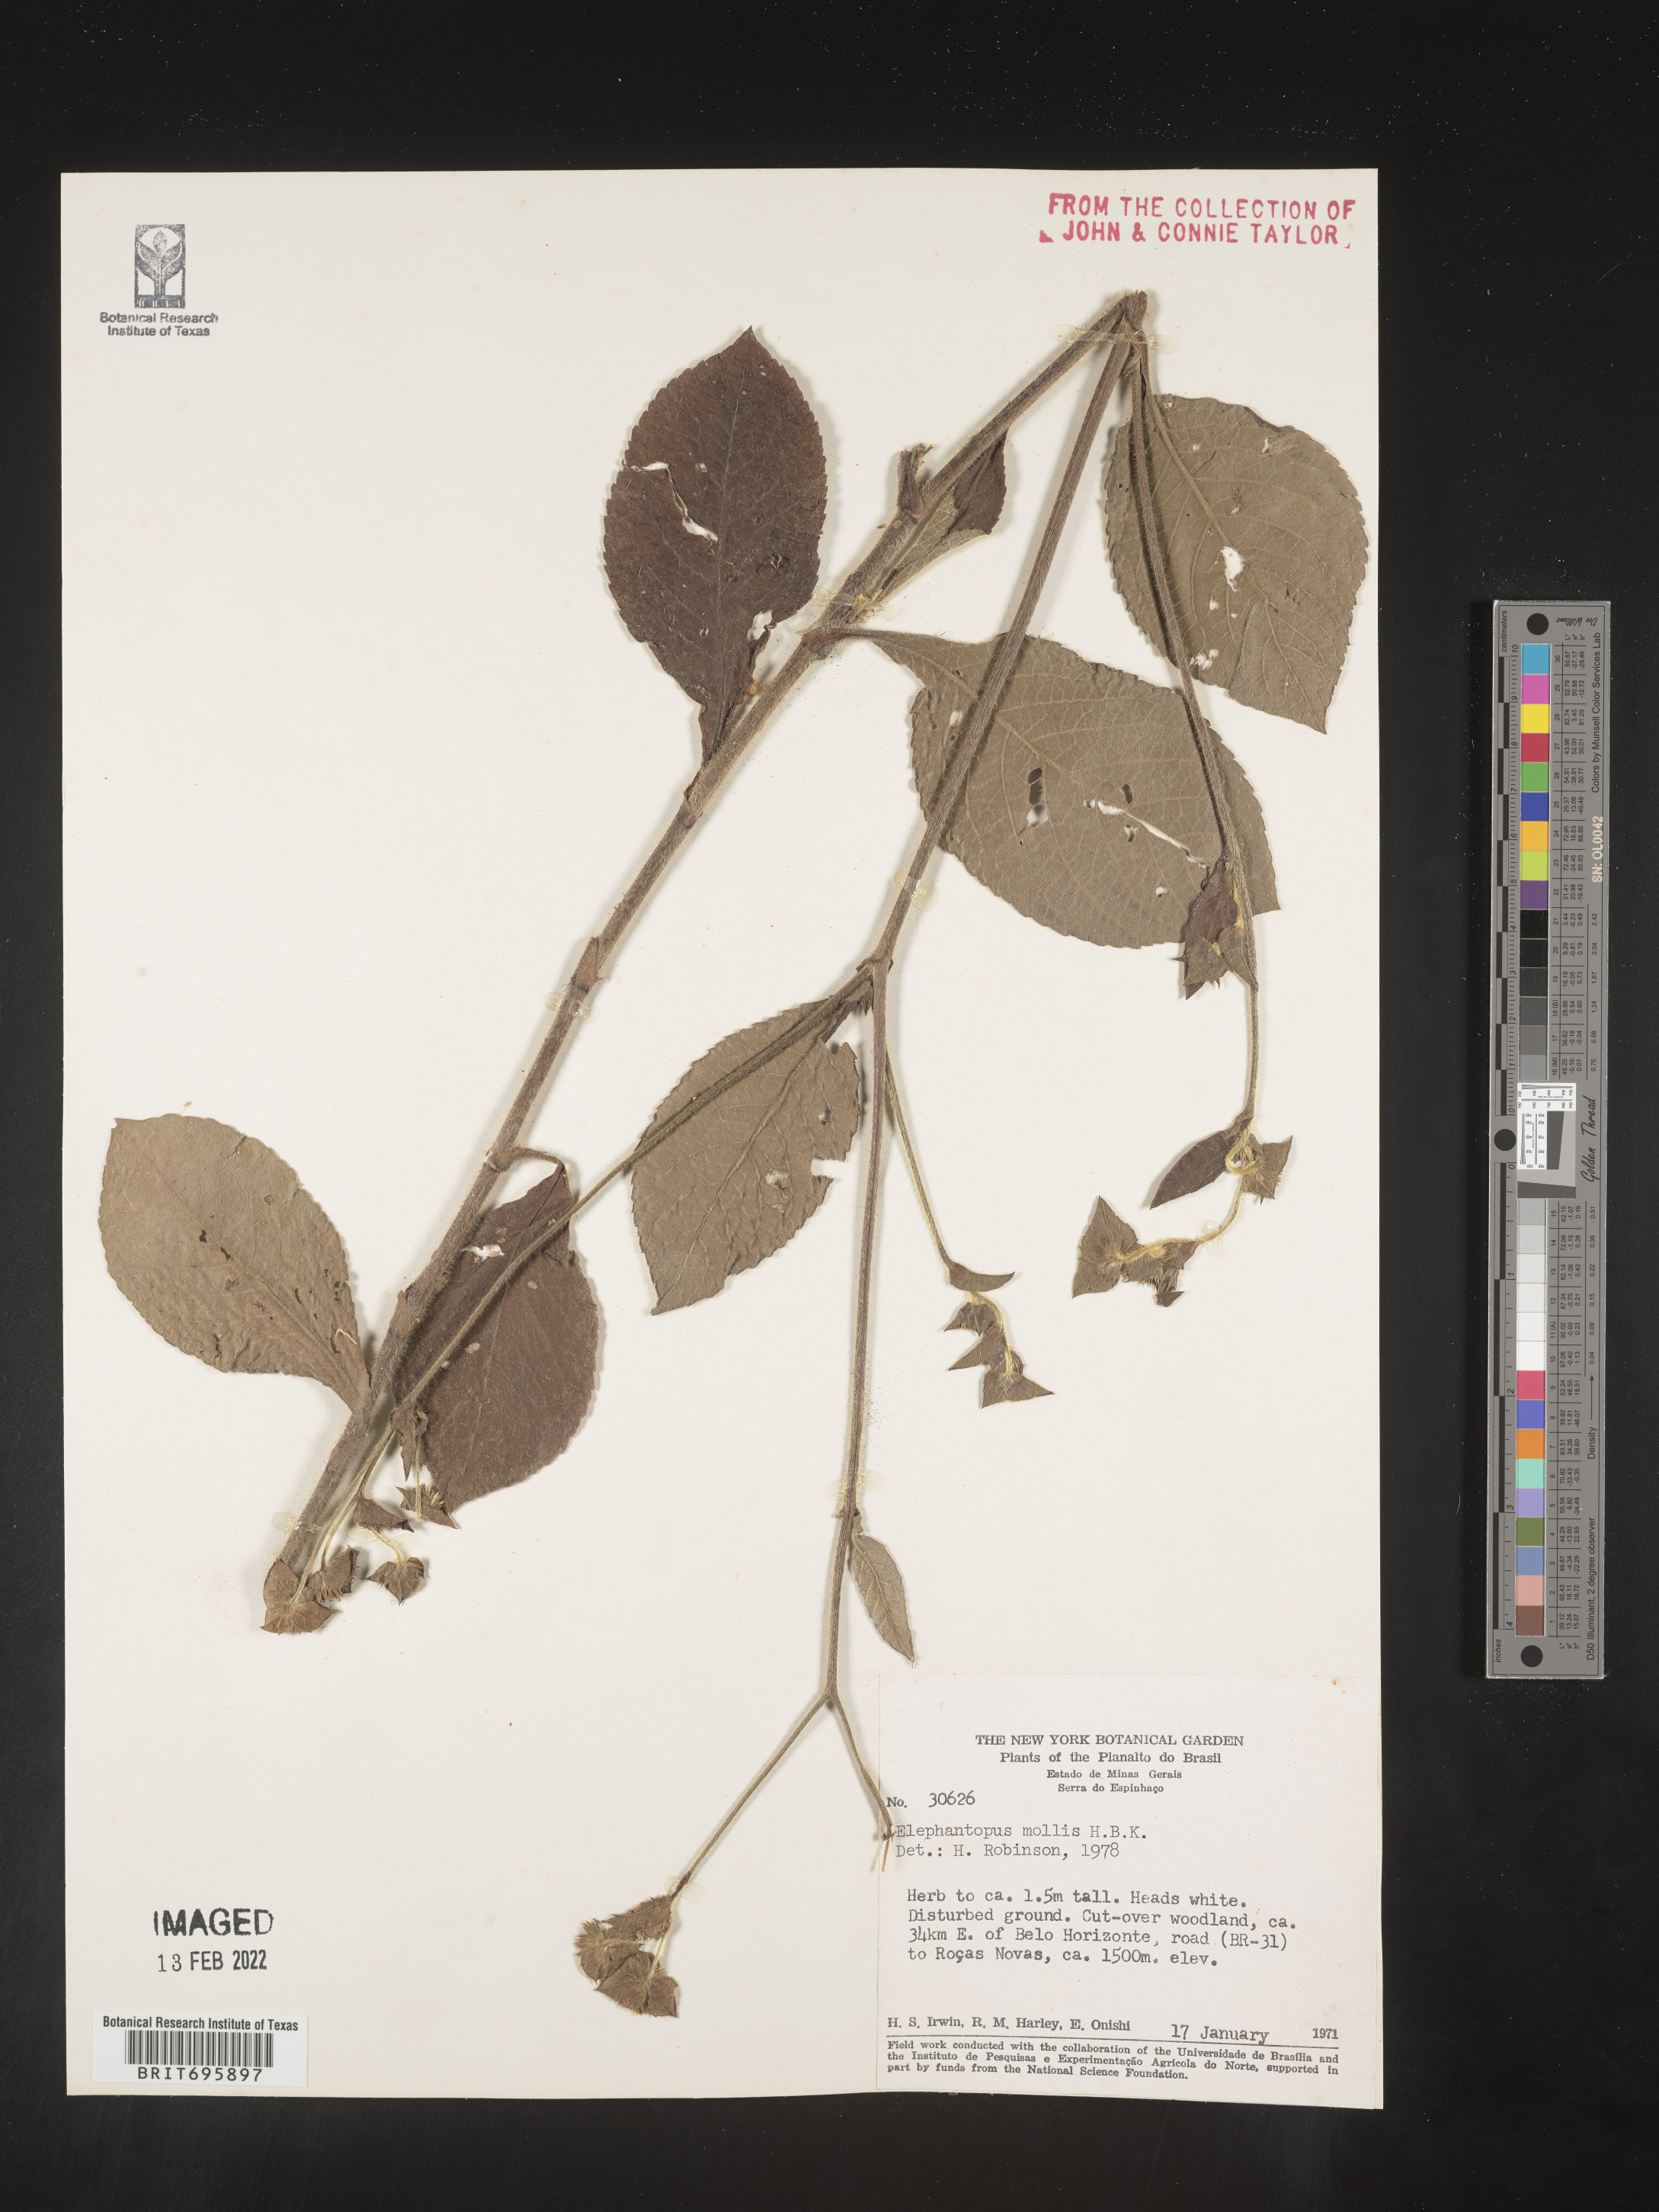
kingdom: Plantae
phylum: Tracheophyta
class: Magnoliopsida
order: Asterales
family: Asteraceae
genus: Elephantopus
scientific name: Elephantopus
